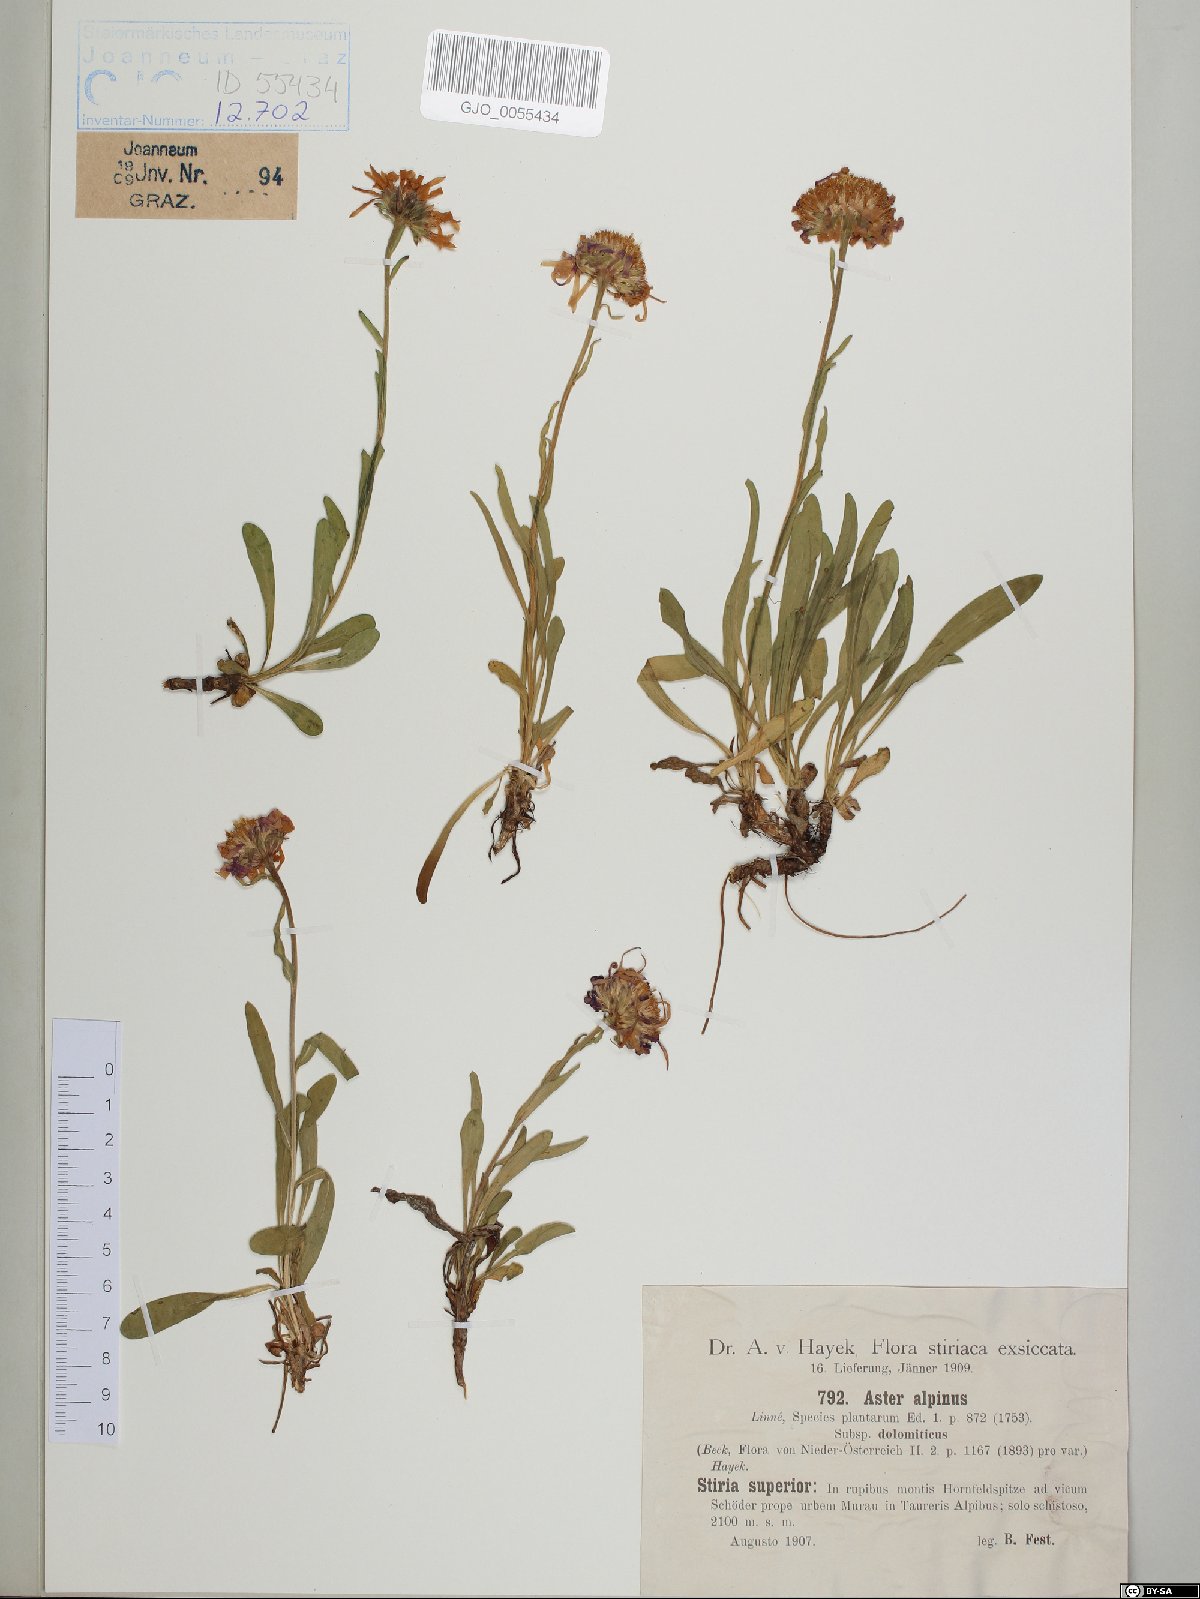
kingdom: Plantae
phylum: Tracheophyta
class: Magnoliopsida
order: Asterales
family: Asteraceae
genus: Aster
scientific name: Aster alpinus
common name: Alpine aster
